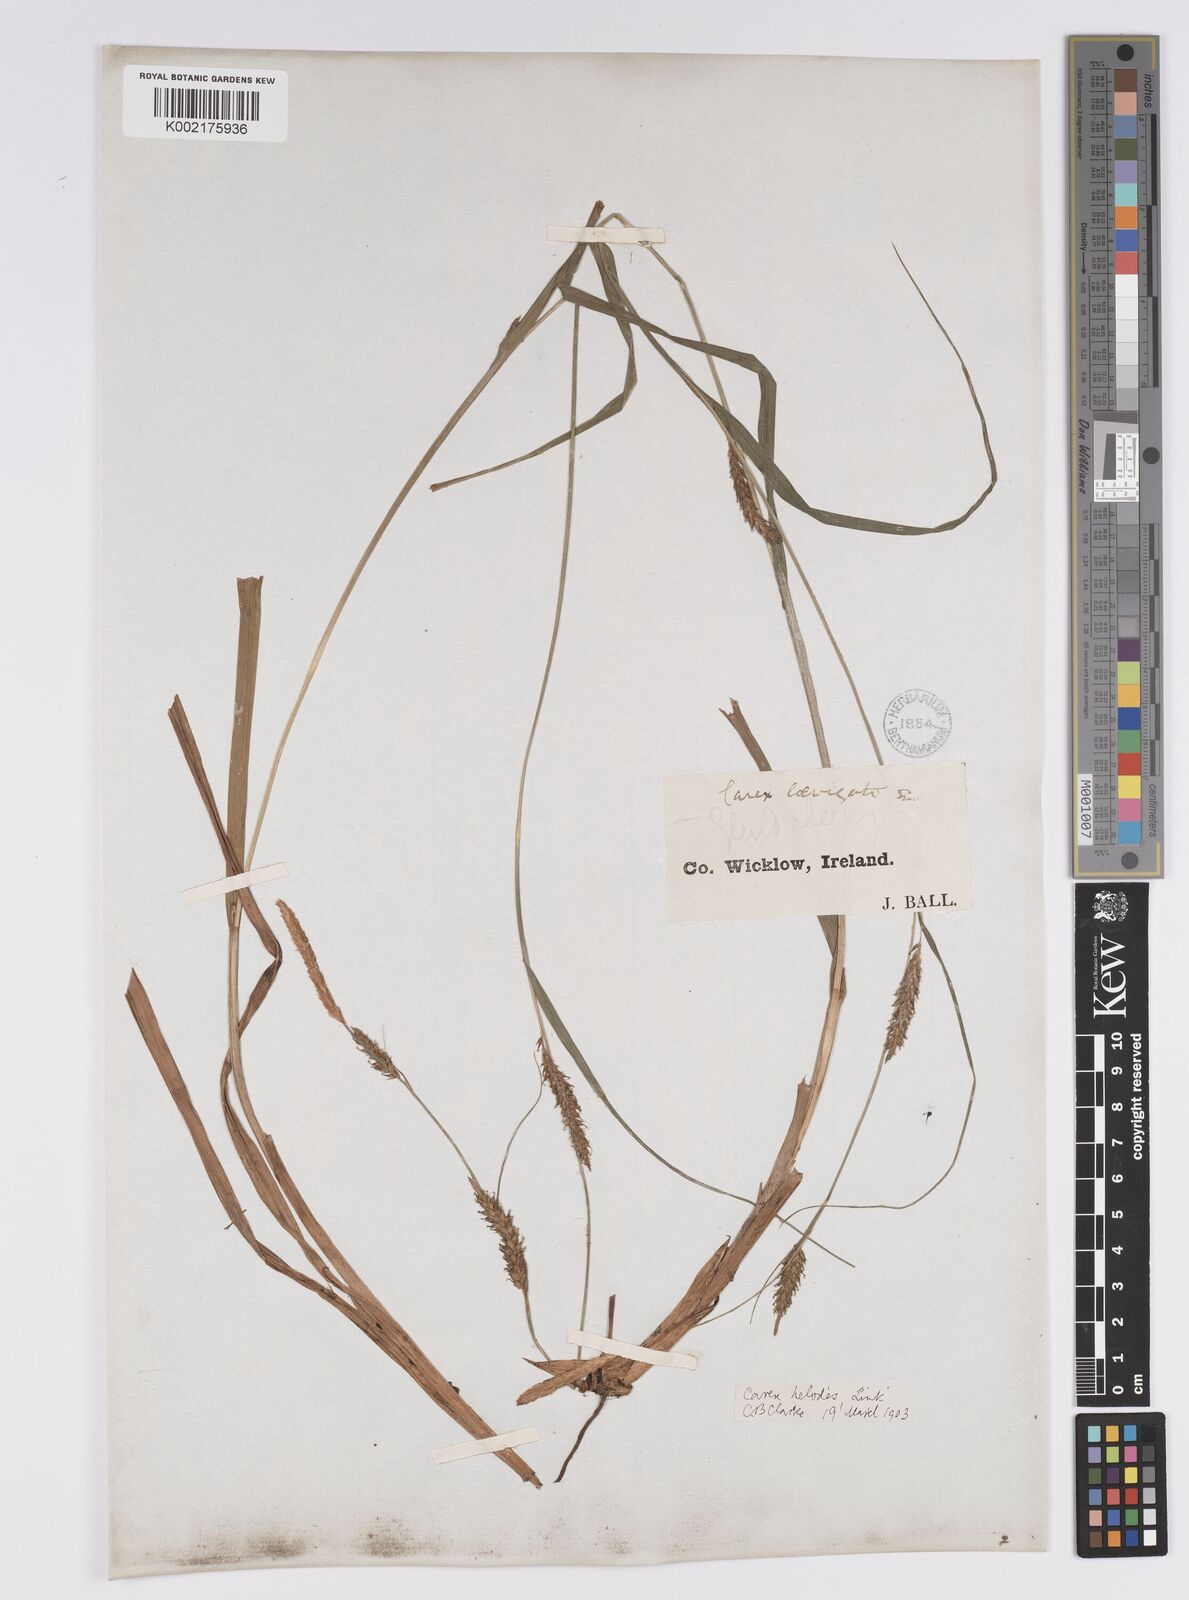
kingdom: Plantae
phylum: Tracheophyta
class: Liliopsida
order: Poales
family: Cyperaceae
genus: Carex
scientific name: Carex laevigata
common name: Smooth-stalked sedge
